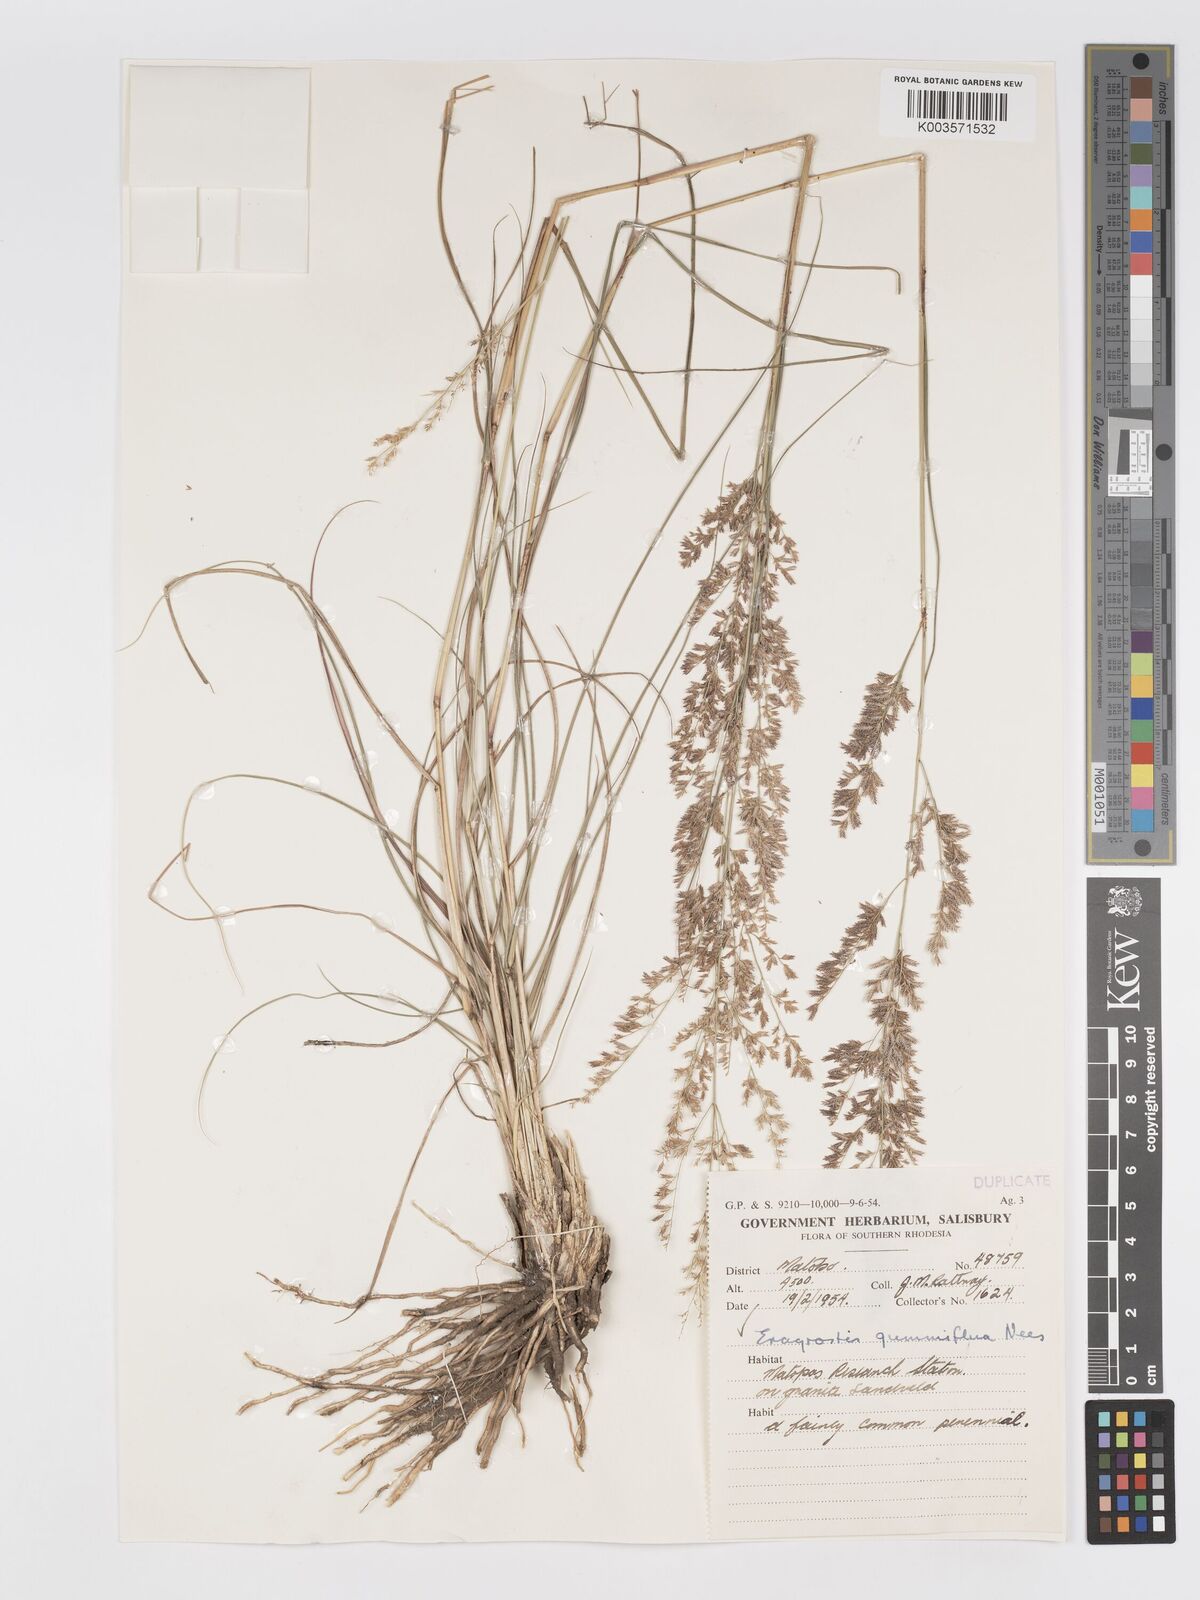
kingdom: Plantae
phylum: Tracheophyta
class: Liliopsida
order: Poales
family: Poaceae
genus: Eragrostis
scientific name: Eragrostis gummiflua
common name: Gum grass
